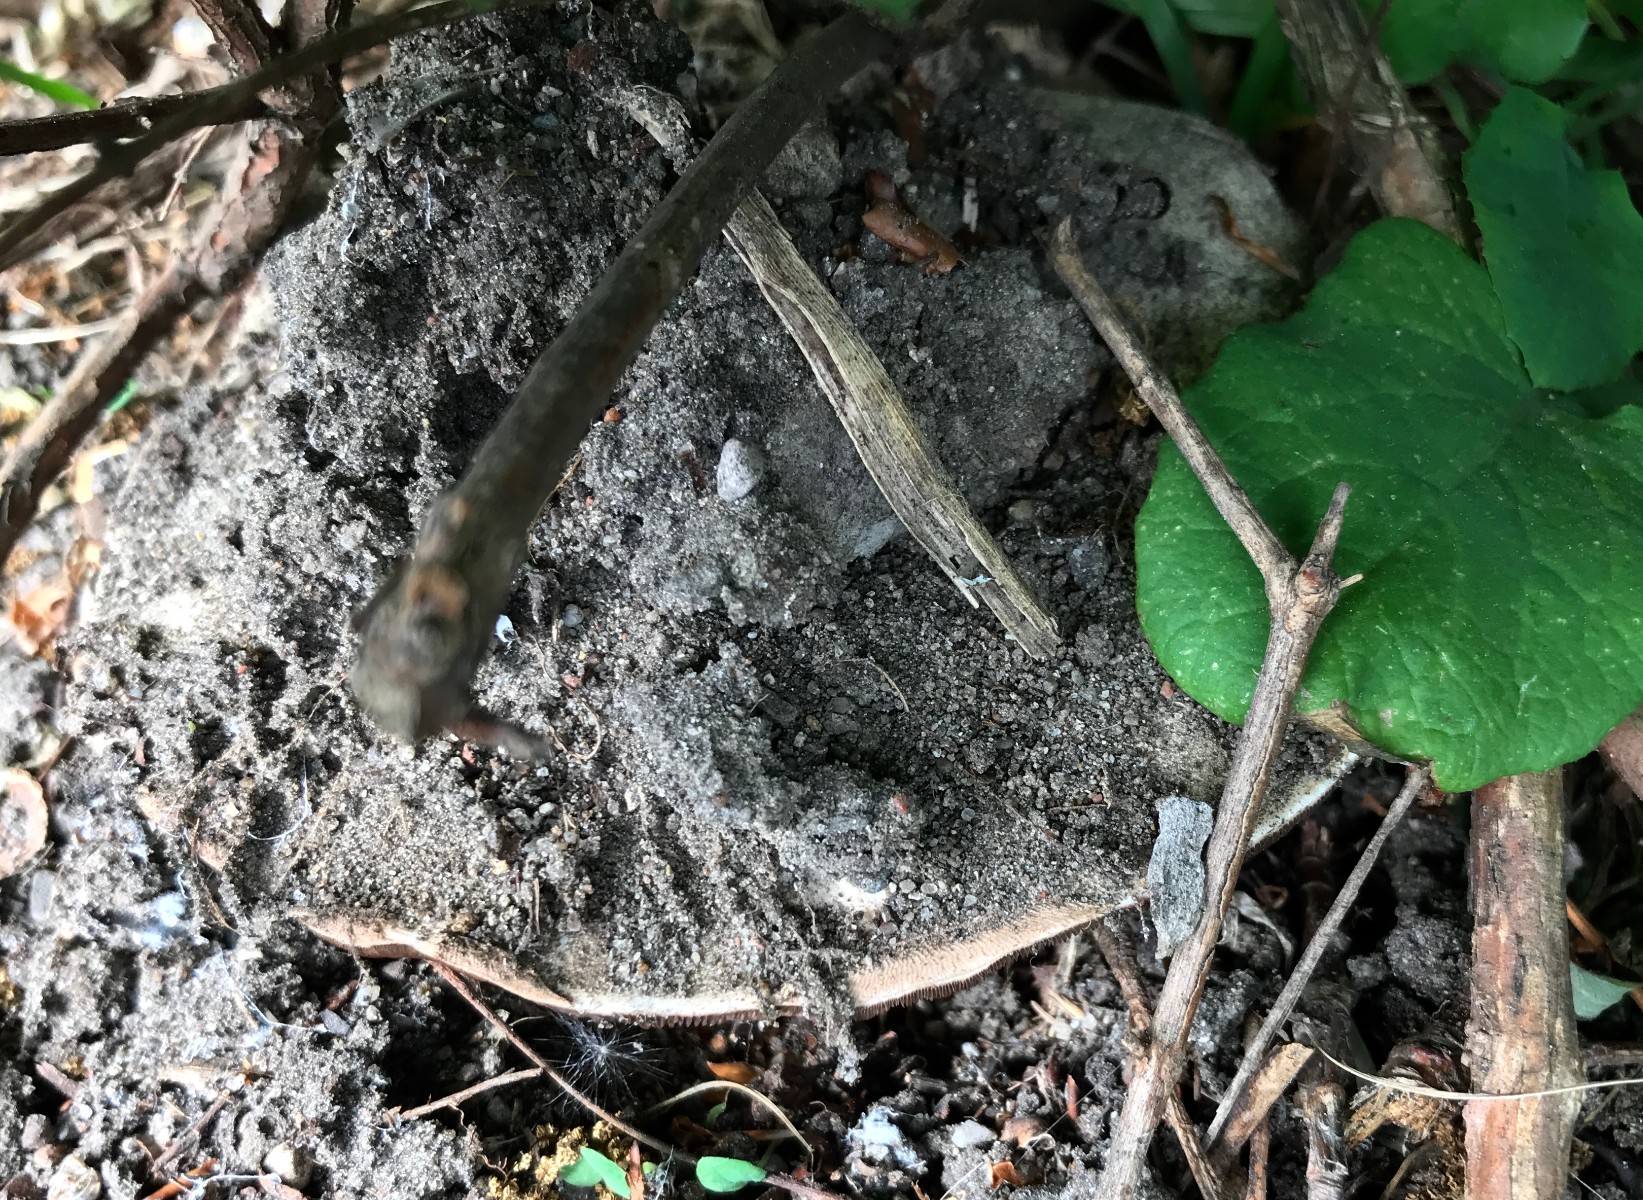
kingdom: Fungi
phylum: Basidiomycota
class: Agaricomycetes
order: Agaricales
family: Agaricaceae
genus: Agaricus
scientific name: Agaricus
